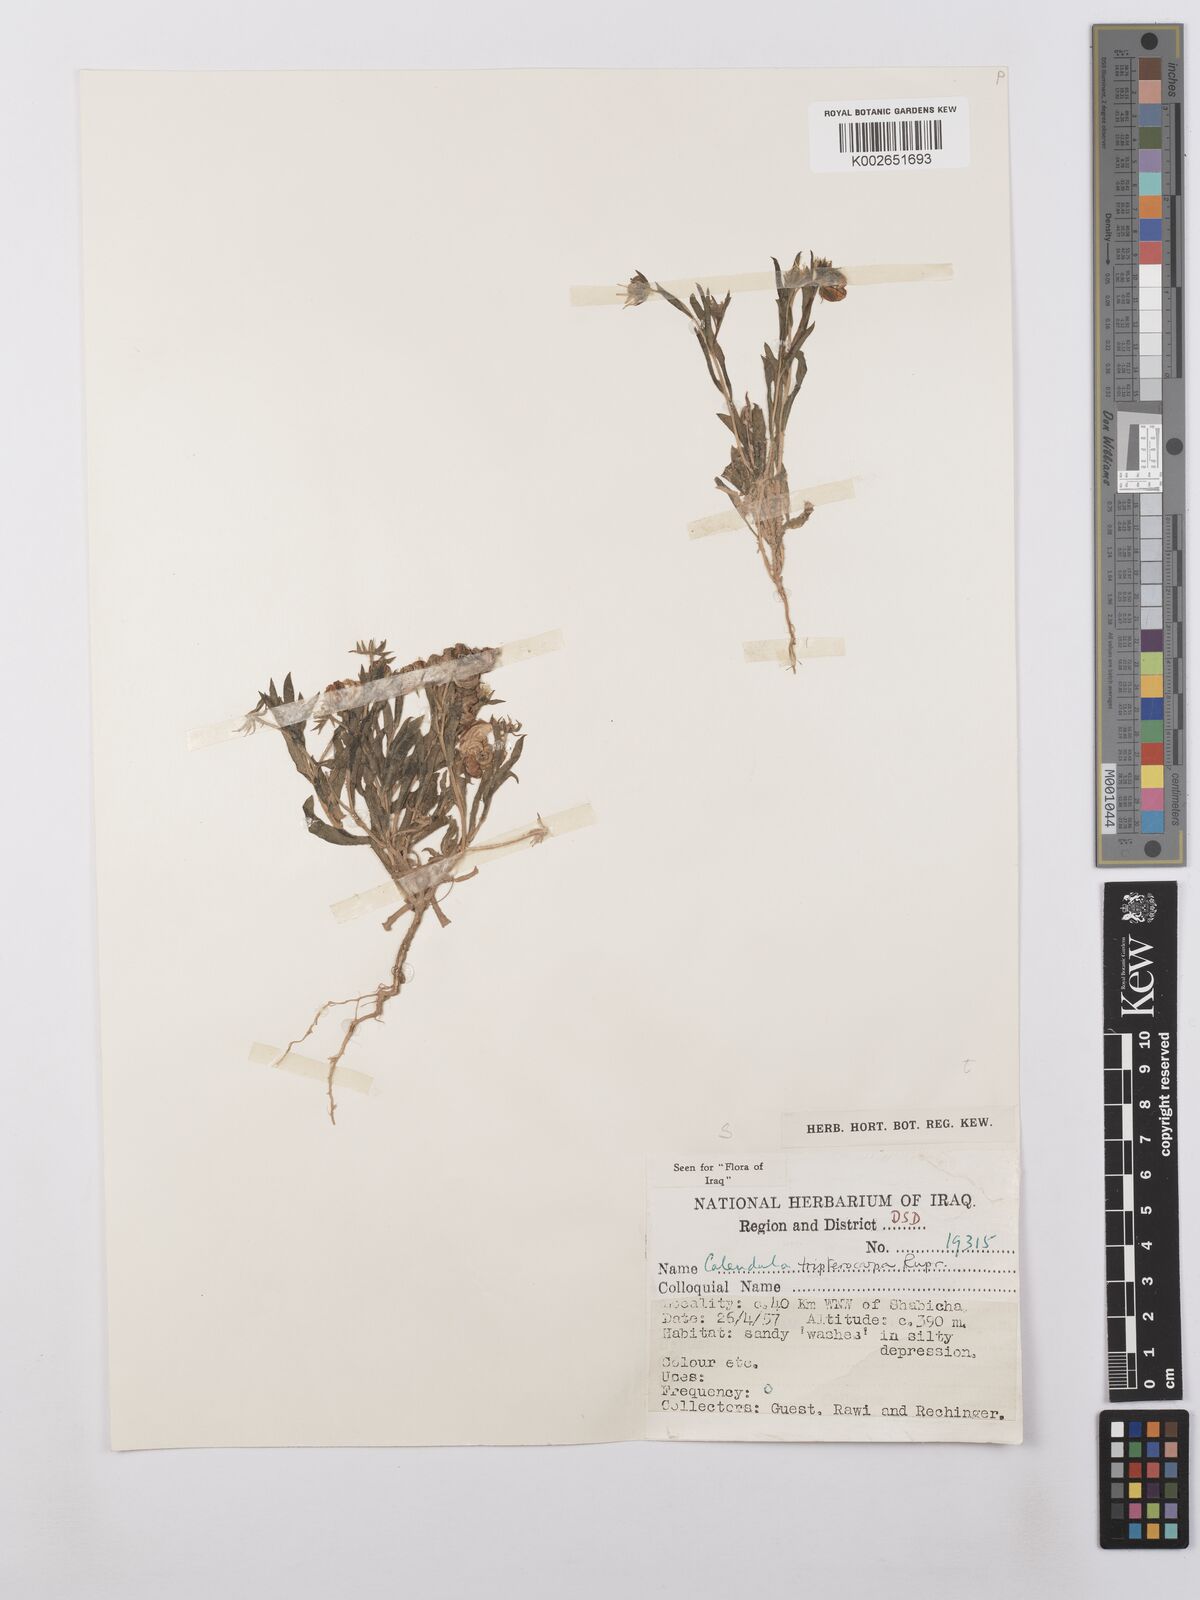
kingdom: Plantae
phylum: Tracheophyta
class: Magnoliopsida
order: Asterales
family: Asteraceae
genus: Calendula
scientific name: Calendula tripterocarpa
